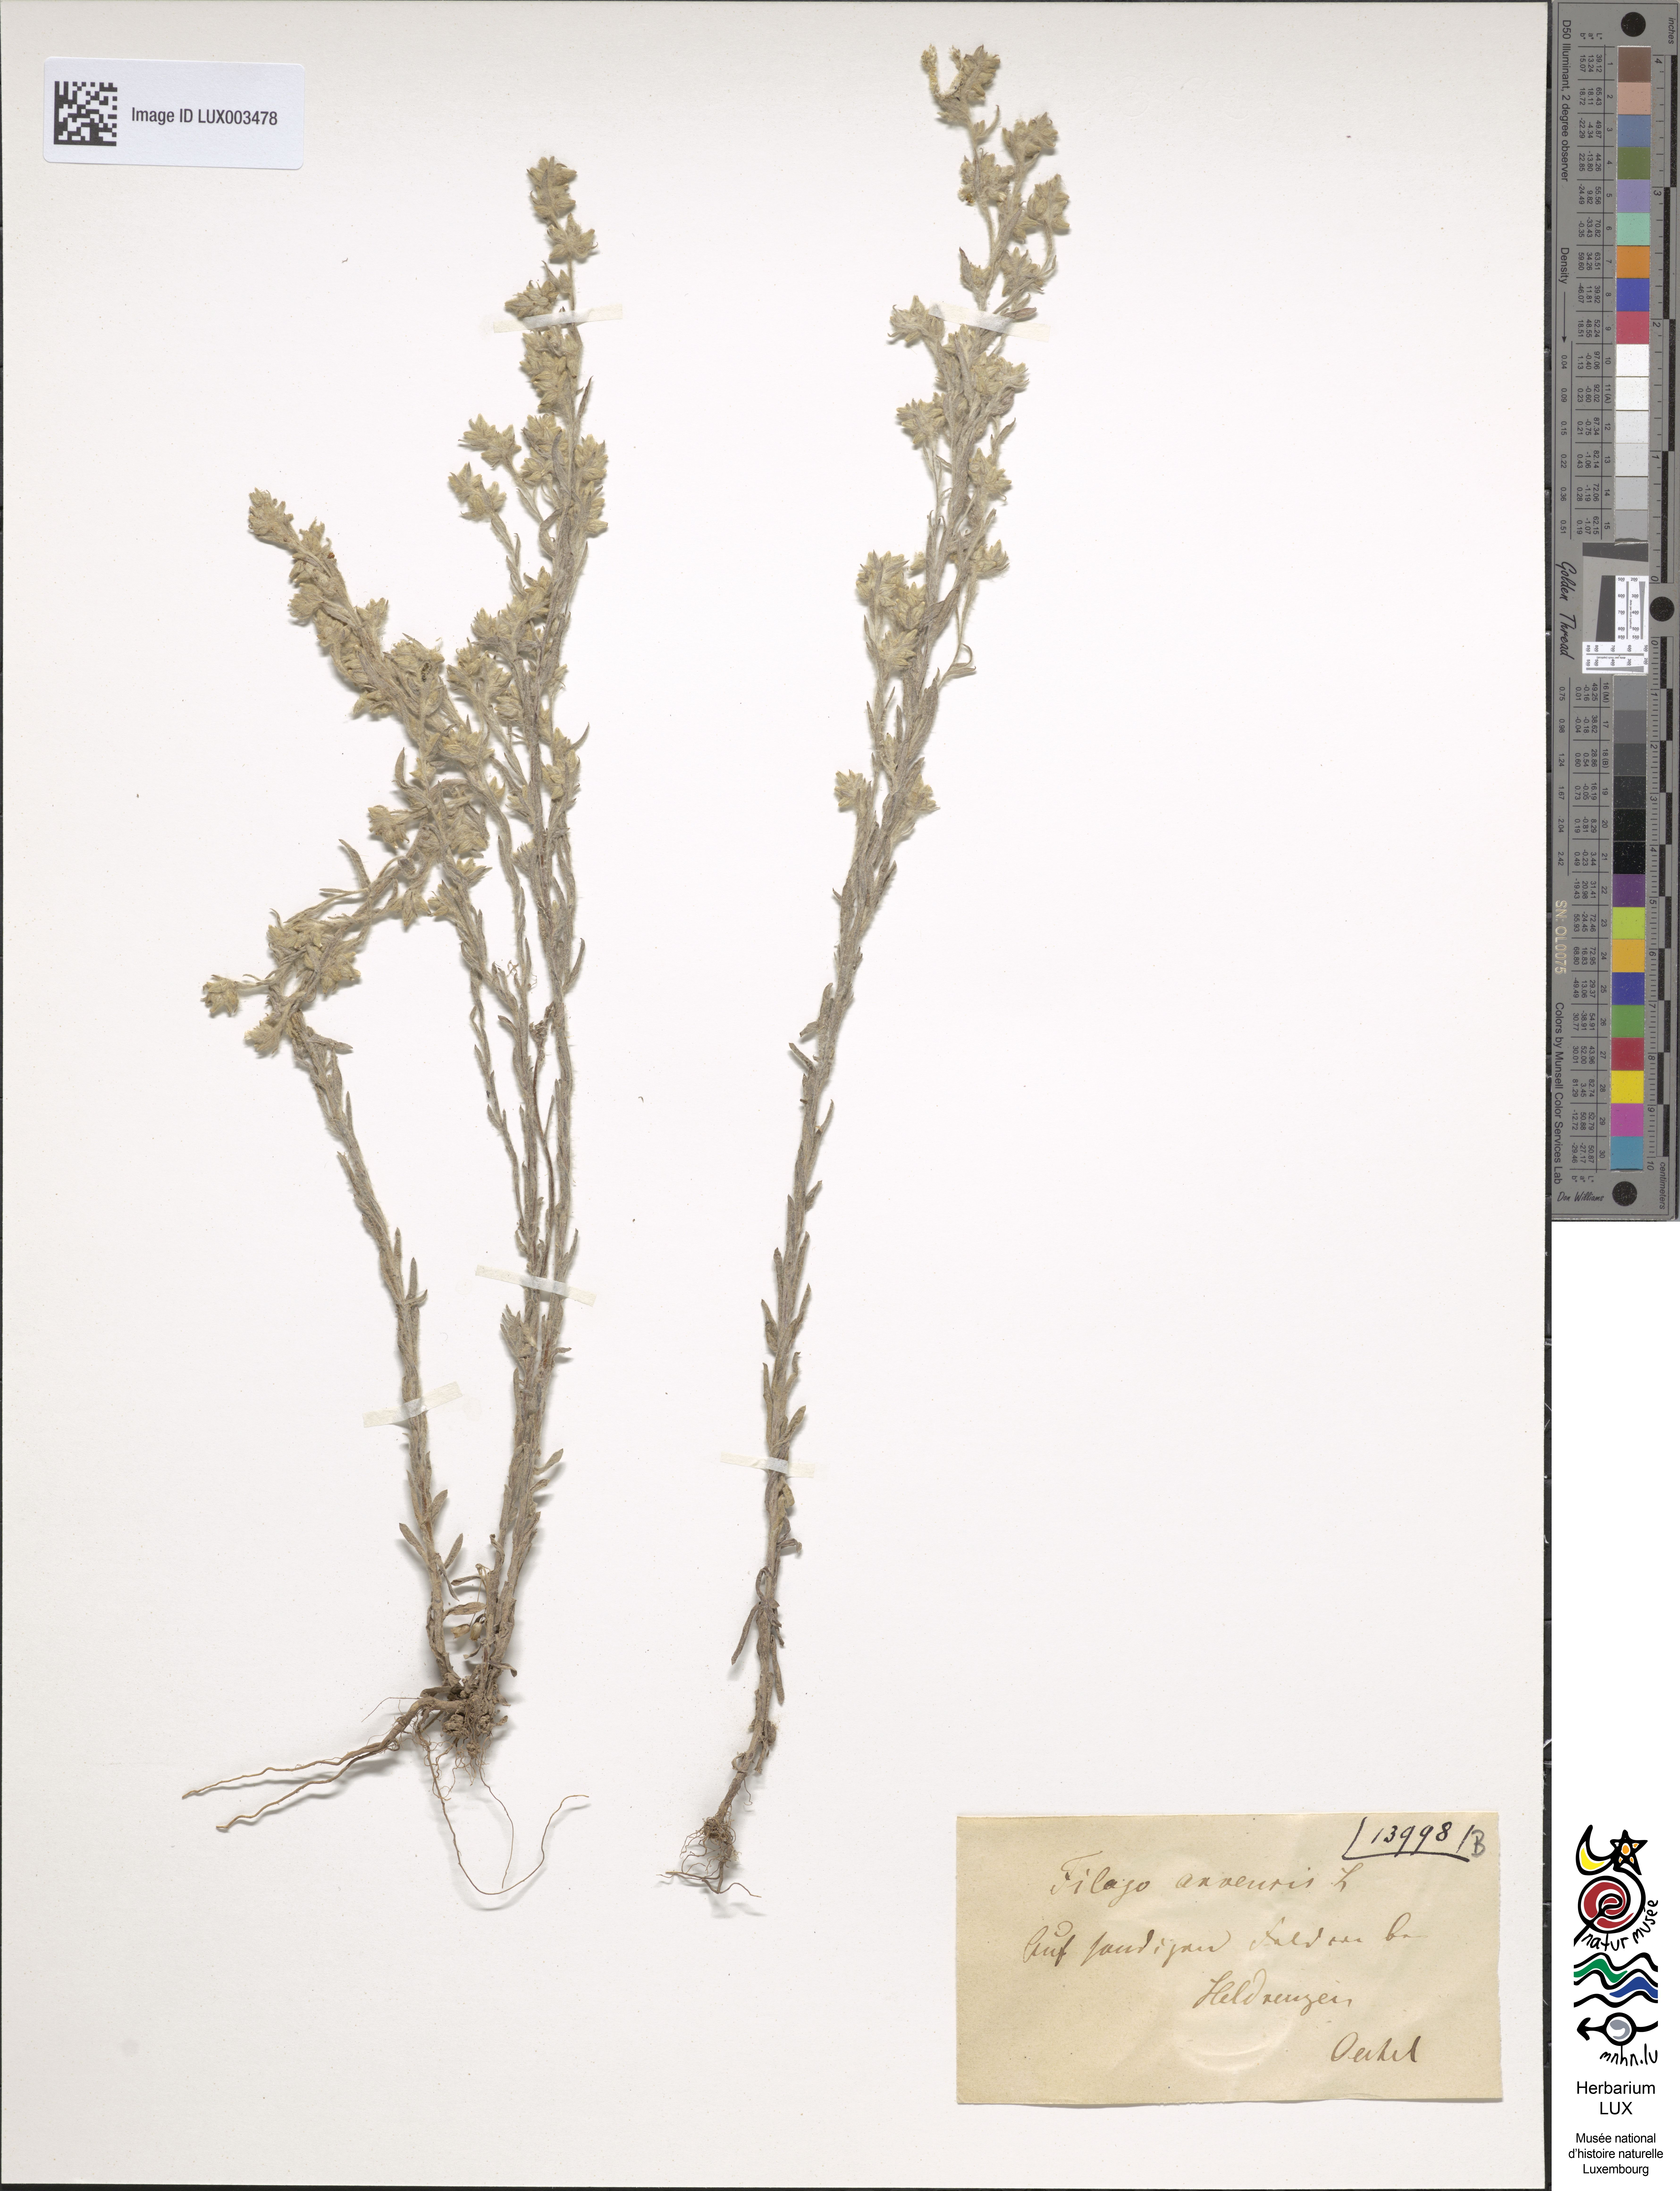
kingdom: Plantae
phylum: Tracheophyta
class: Magnoliopsida
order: Asterales
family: Asteraceae
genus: Filago
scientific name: Filago arvensis
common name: Field cudweed
